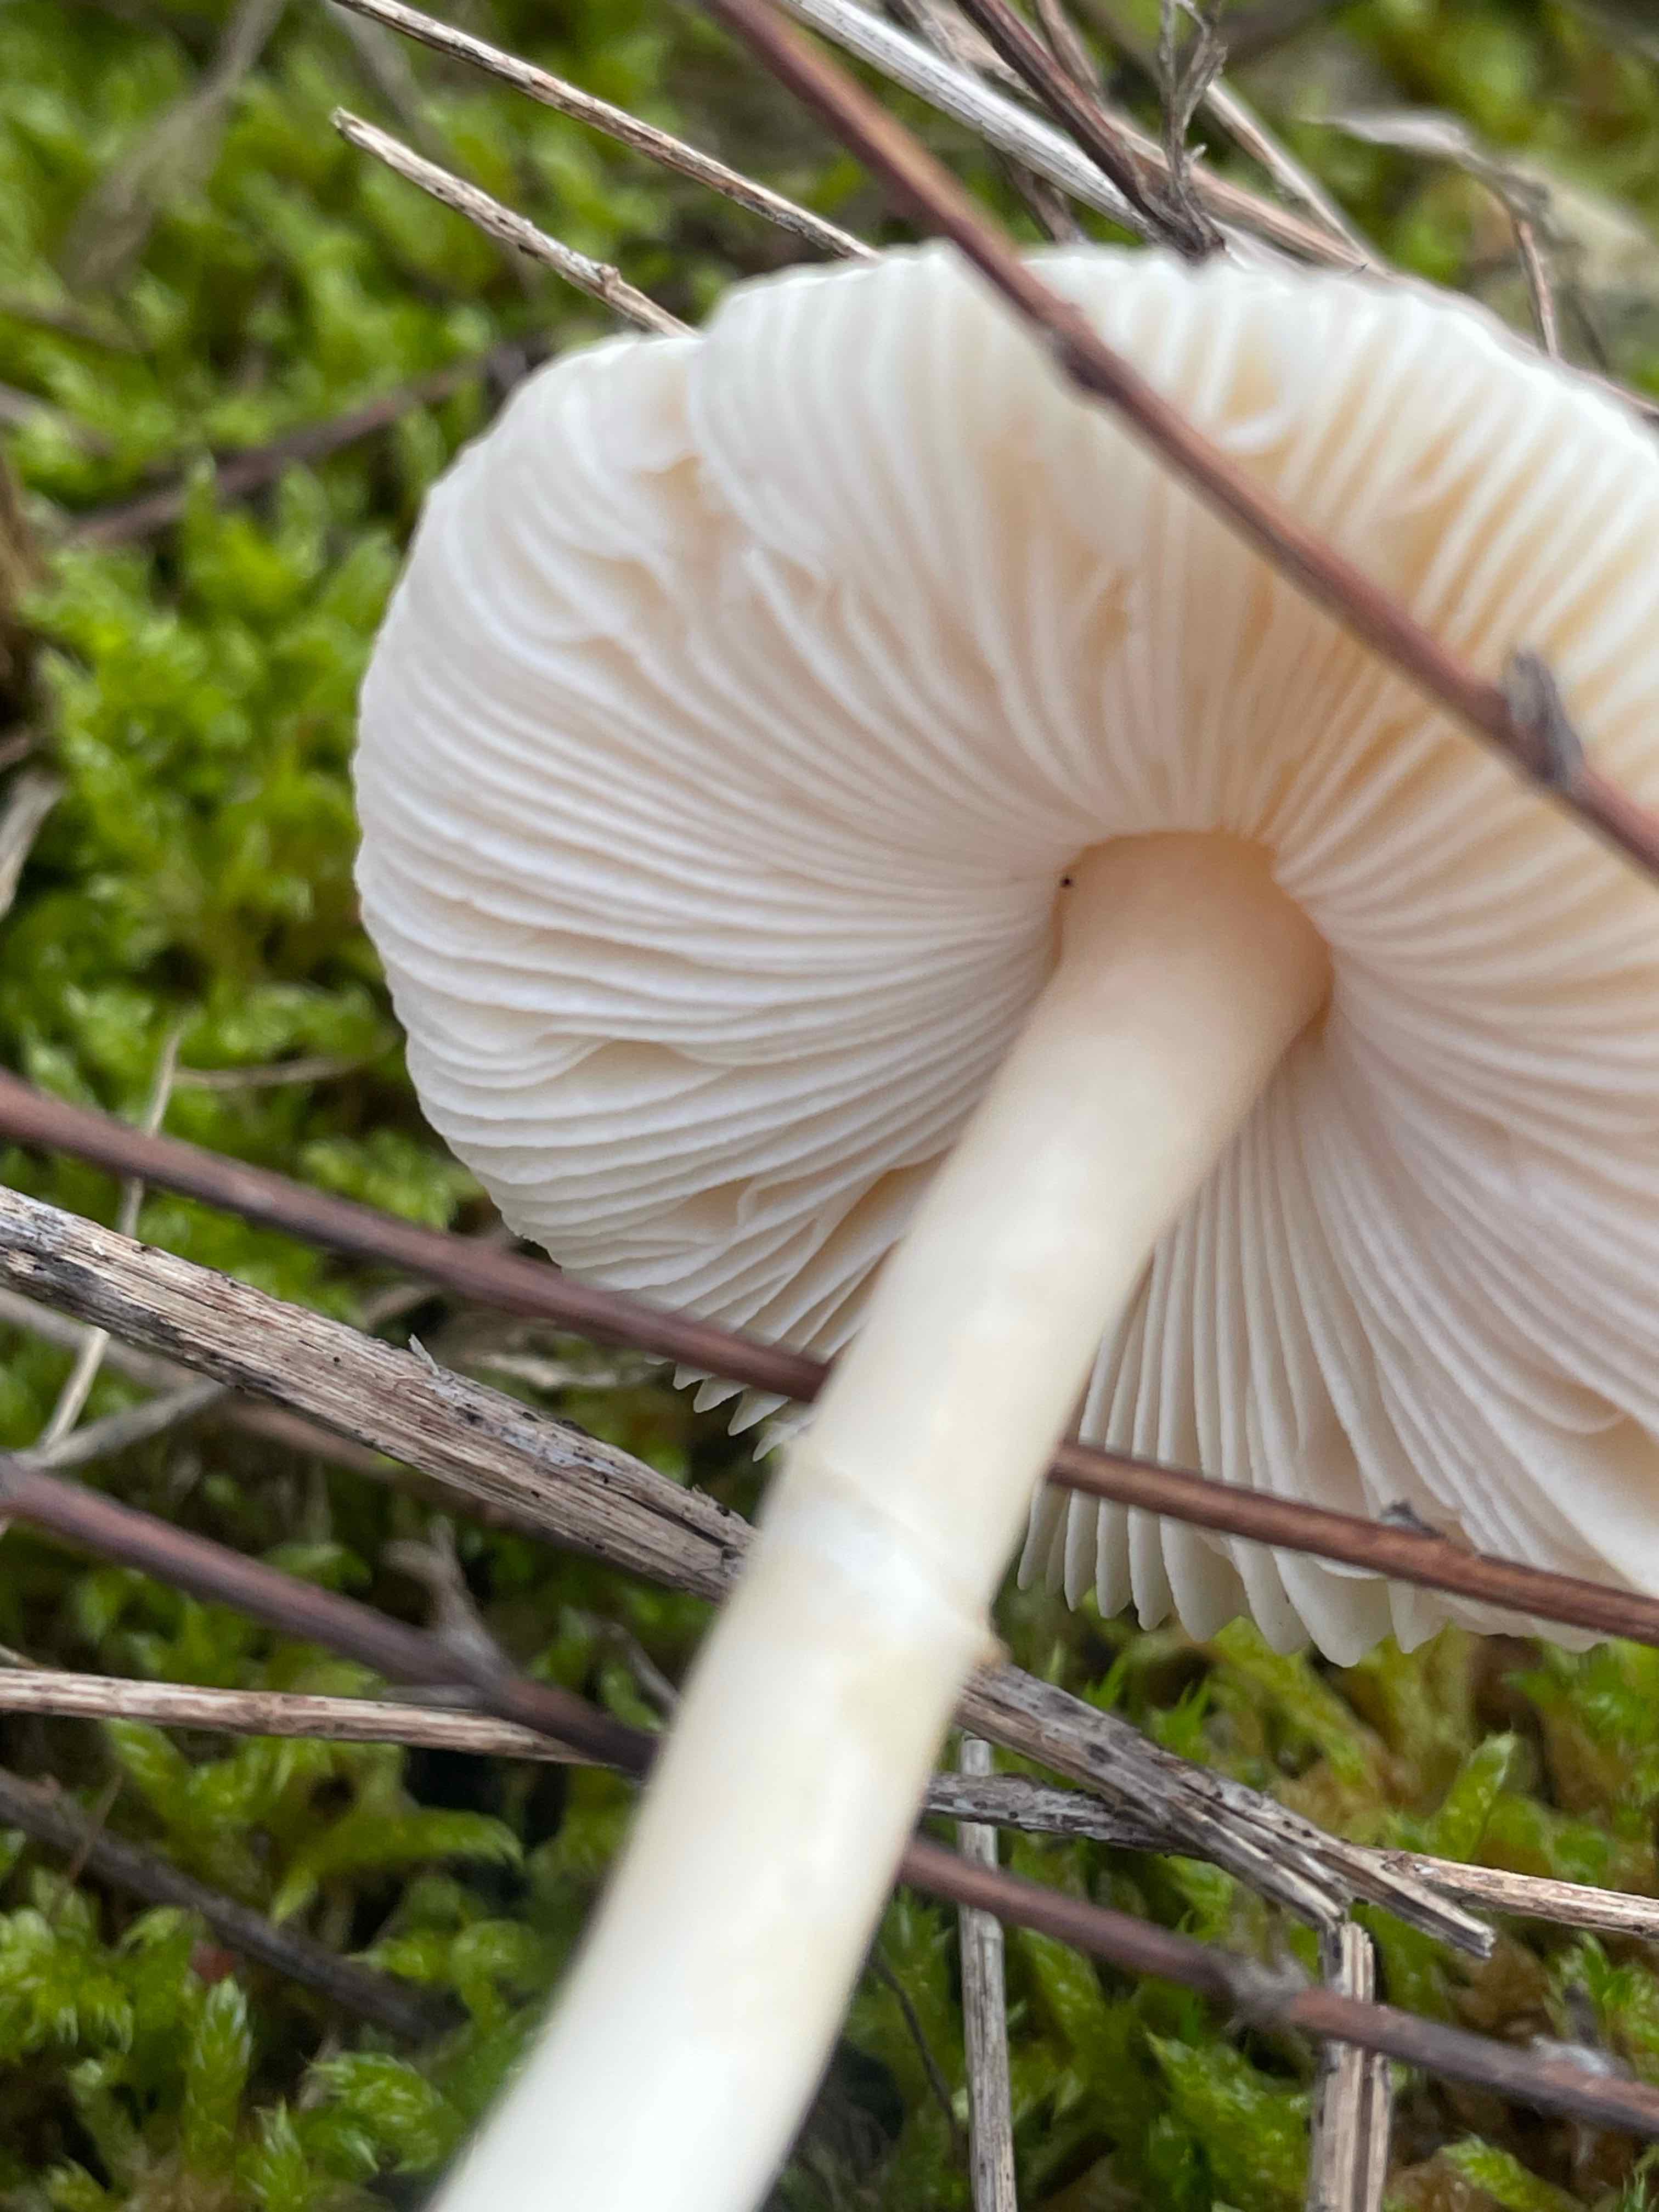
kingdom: Fungi
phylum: Basidiomycota
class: Agaricomycetes
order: Agaricales
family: Pluteaceae
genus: Volvariella
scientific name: Volvariella
